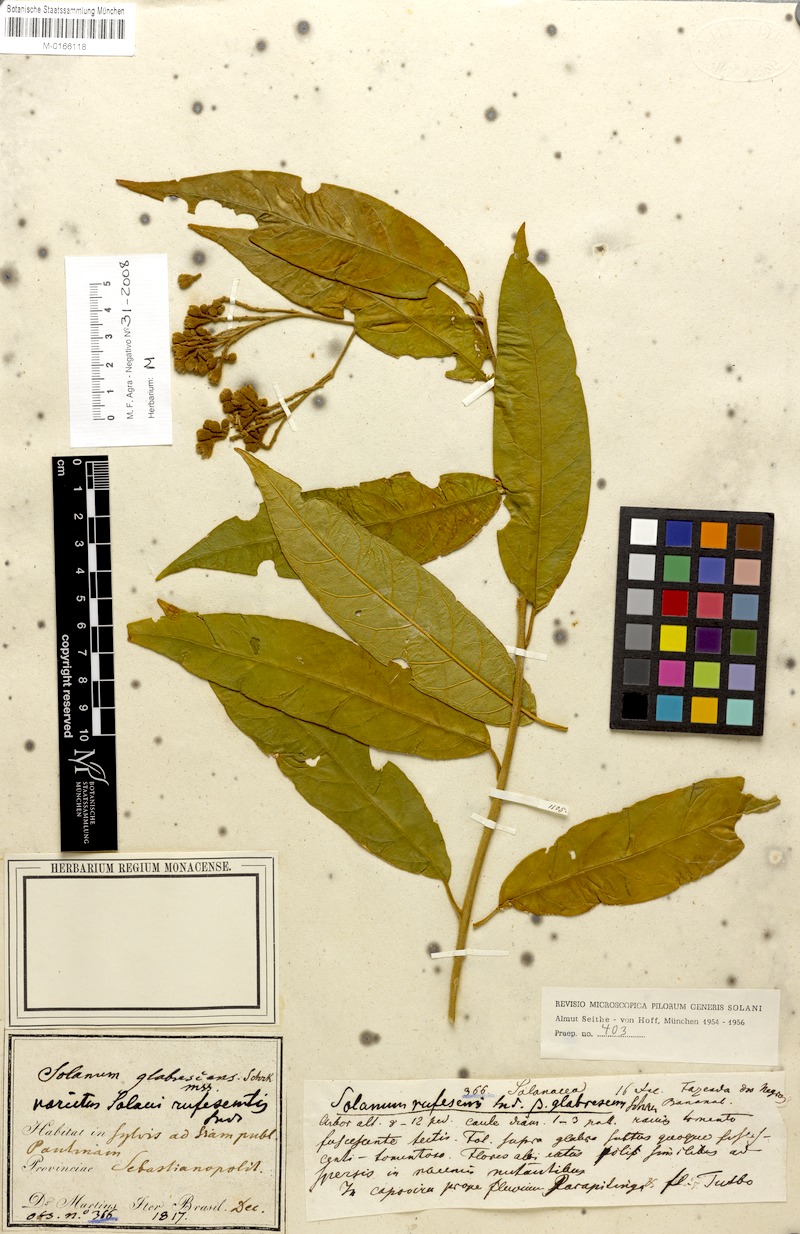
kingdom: Plantae
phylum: Tracheophyta
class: Magnoliopsida
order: Solanales
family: Solanaceae
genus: Solanum
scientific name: Solanum rufescens
